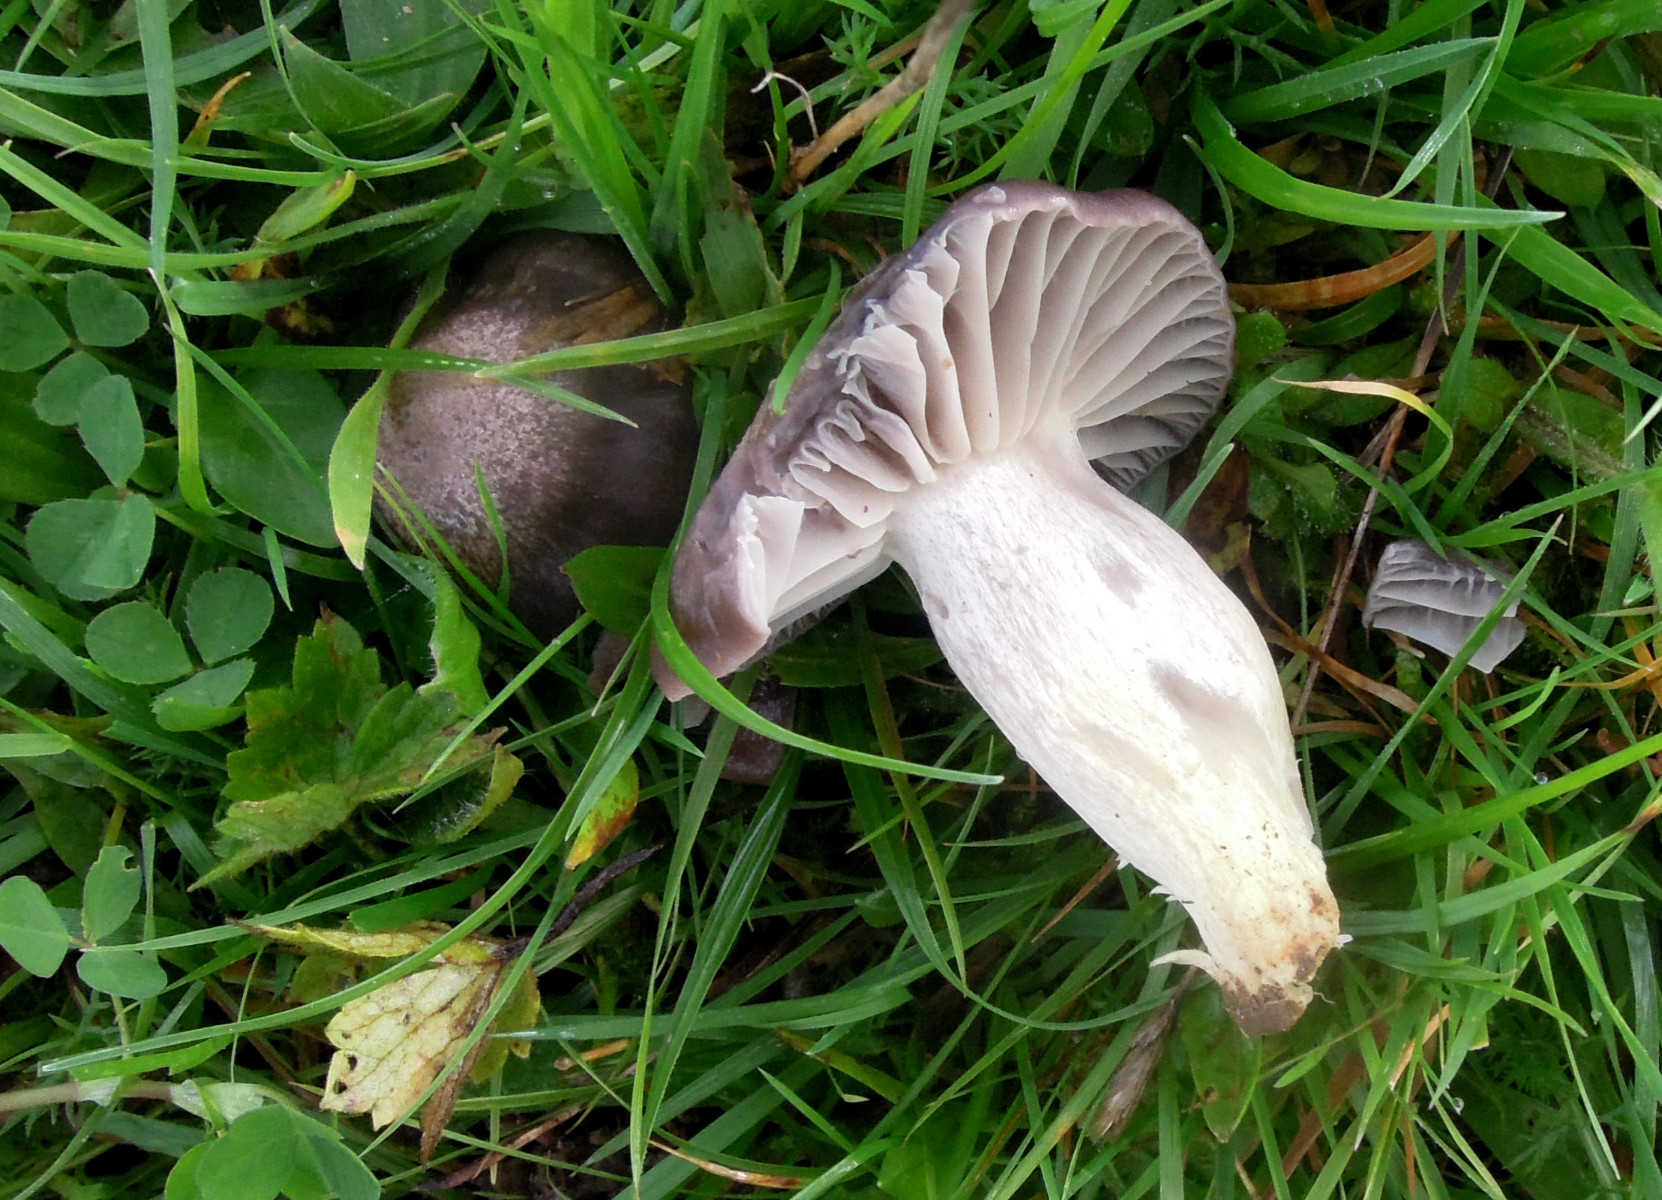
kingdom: Fungi
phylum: Basidiomycota
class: Agaricomycetes
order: Agaricales
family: Hygrophoraceae
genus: Cuphophyllus
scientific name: Cuphophyllus flavipes
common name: gulfodet vokshat
